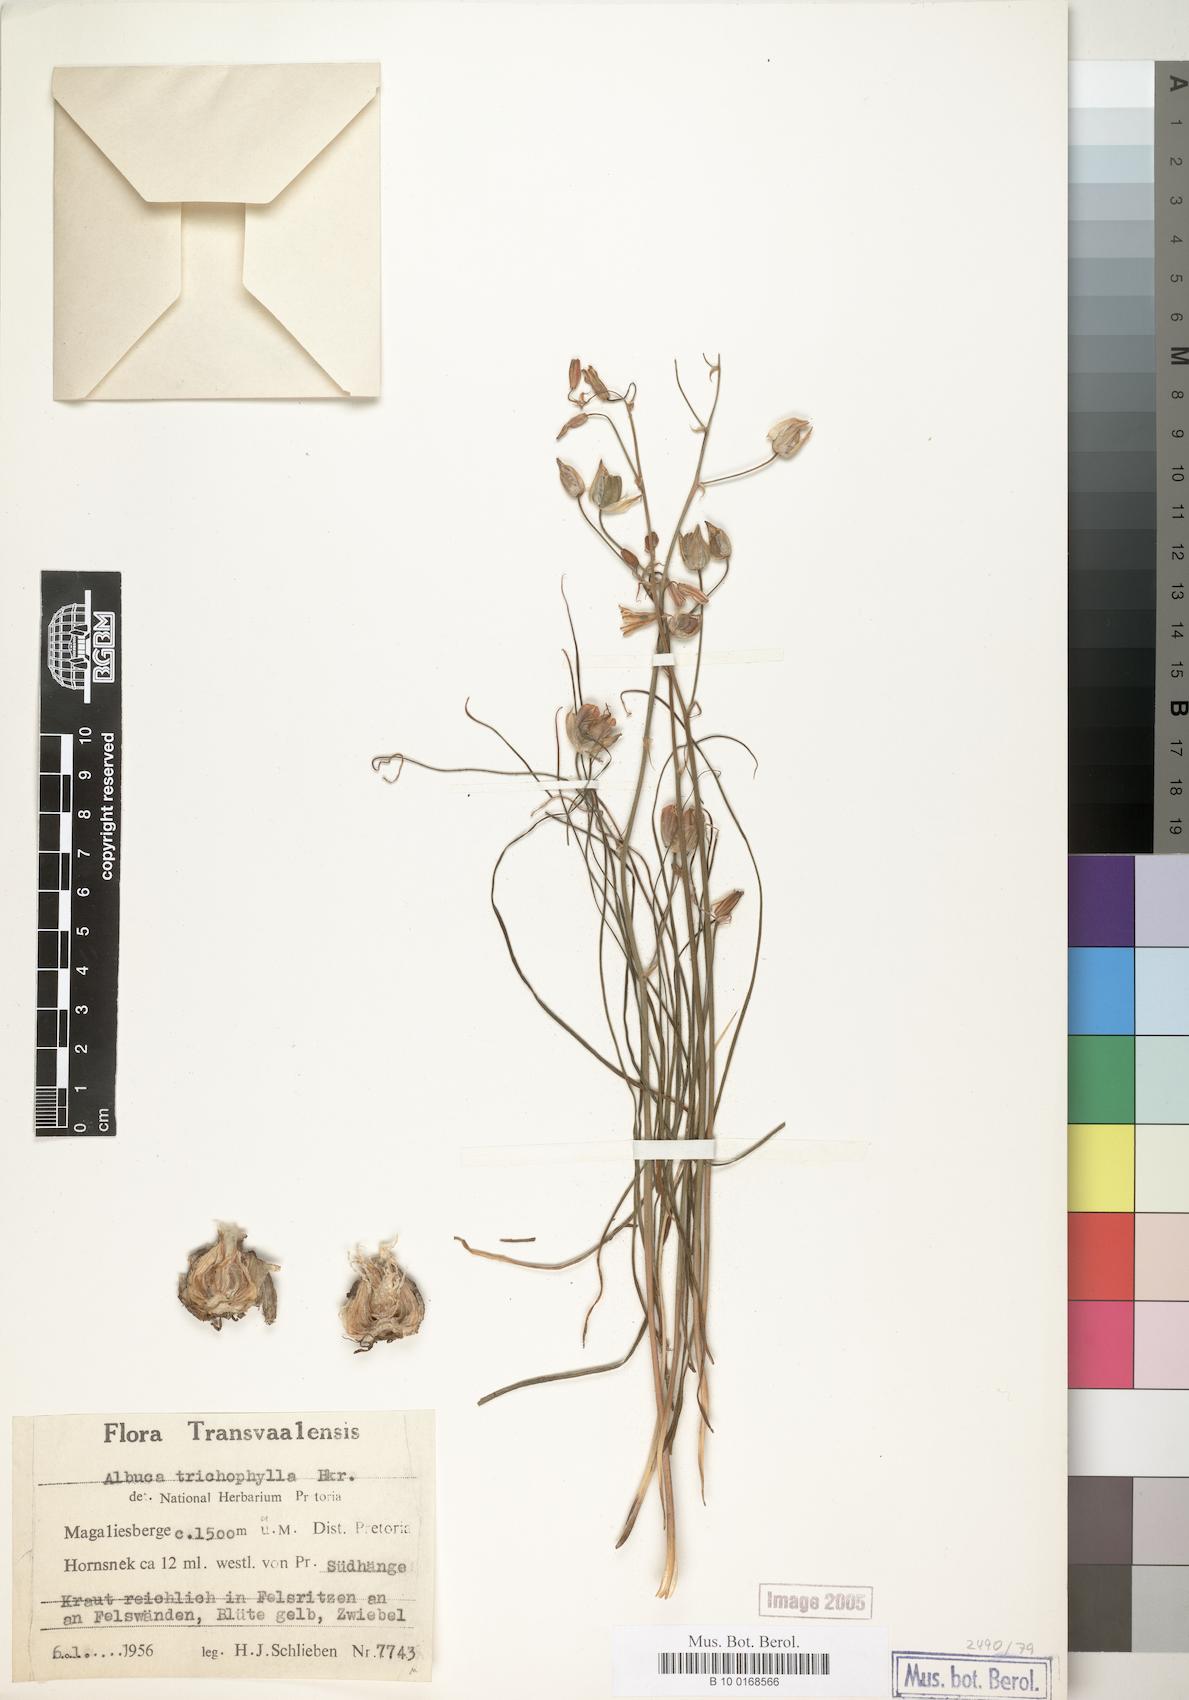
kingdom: Plantae
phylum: Tracheophyta
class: Liliopsida
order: Asparagales
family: Asparagaceae
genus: Albuca
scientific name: Albuca shawii
